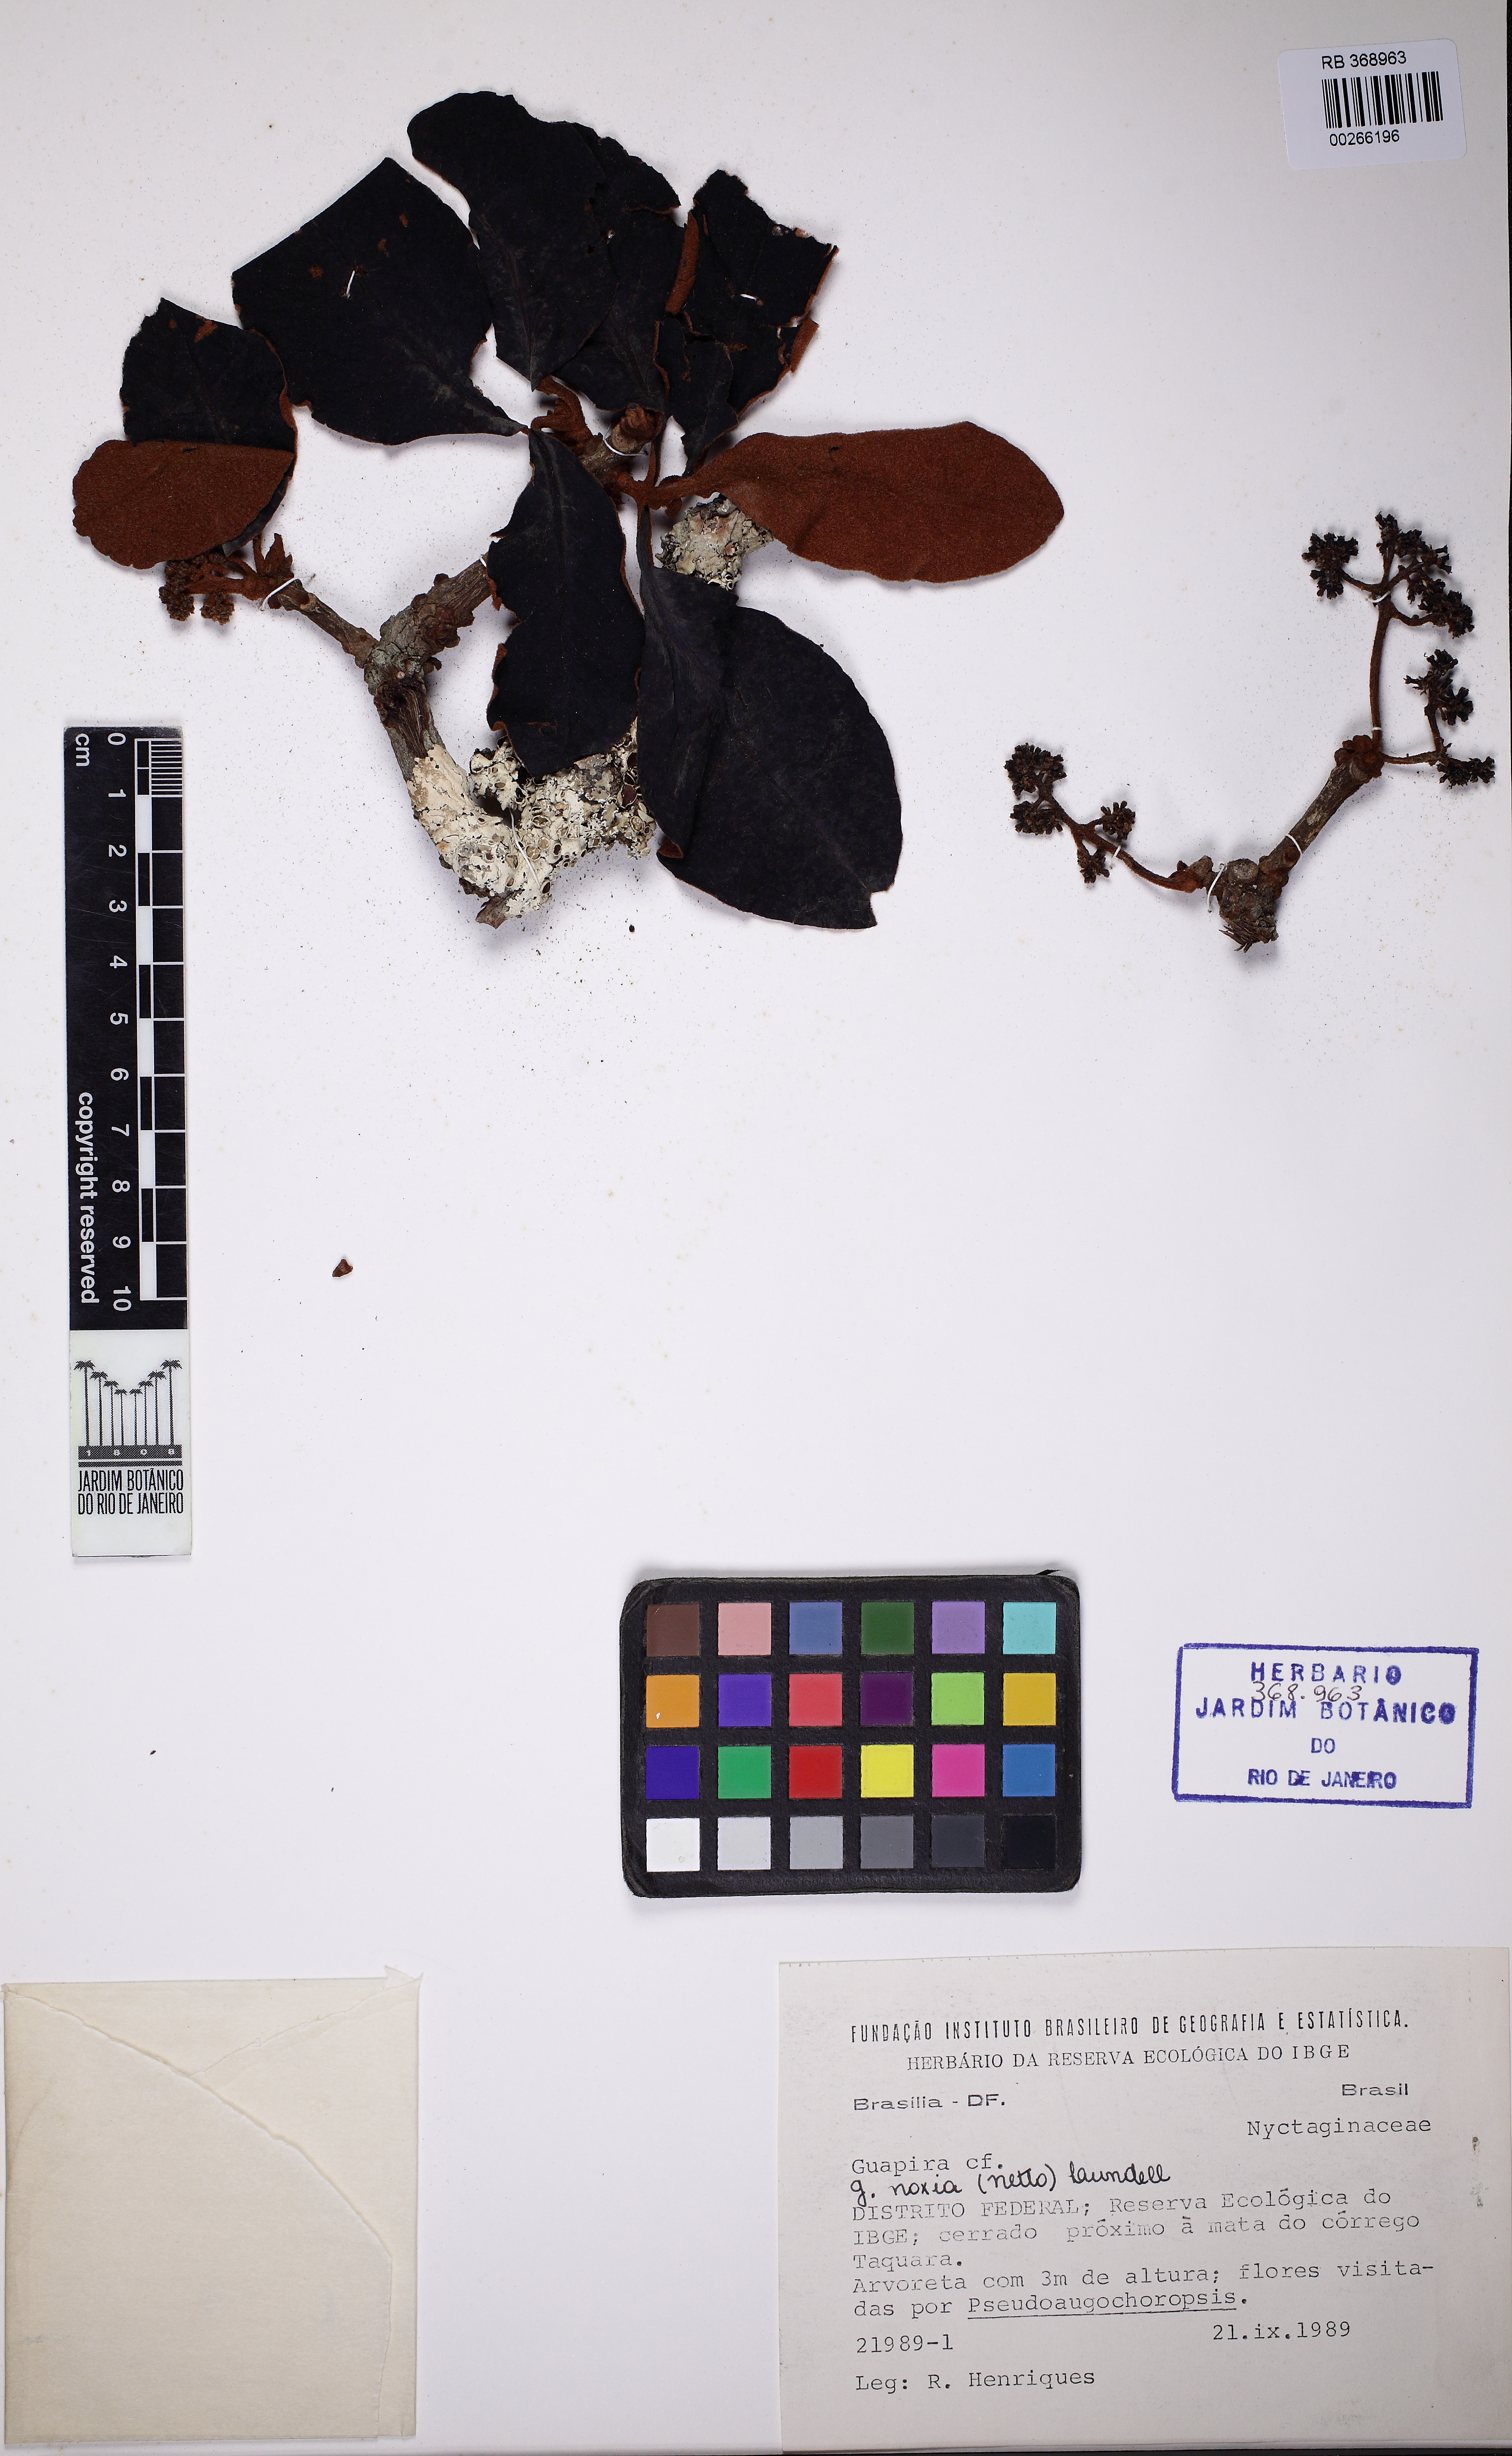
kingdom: Plantae
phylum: Tracheophyta
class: Magnoliopsida
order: Caryophyllales
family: Nyctaginaceae
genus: Guapira
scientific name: Guapira noxia
